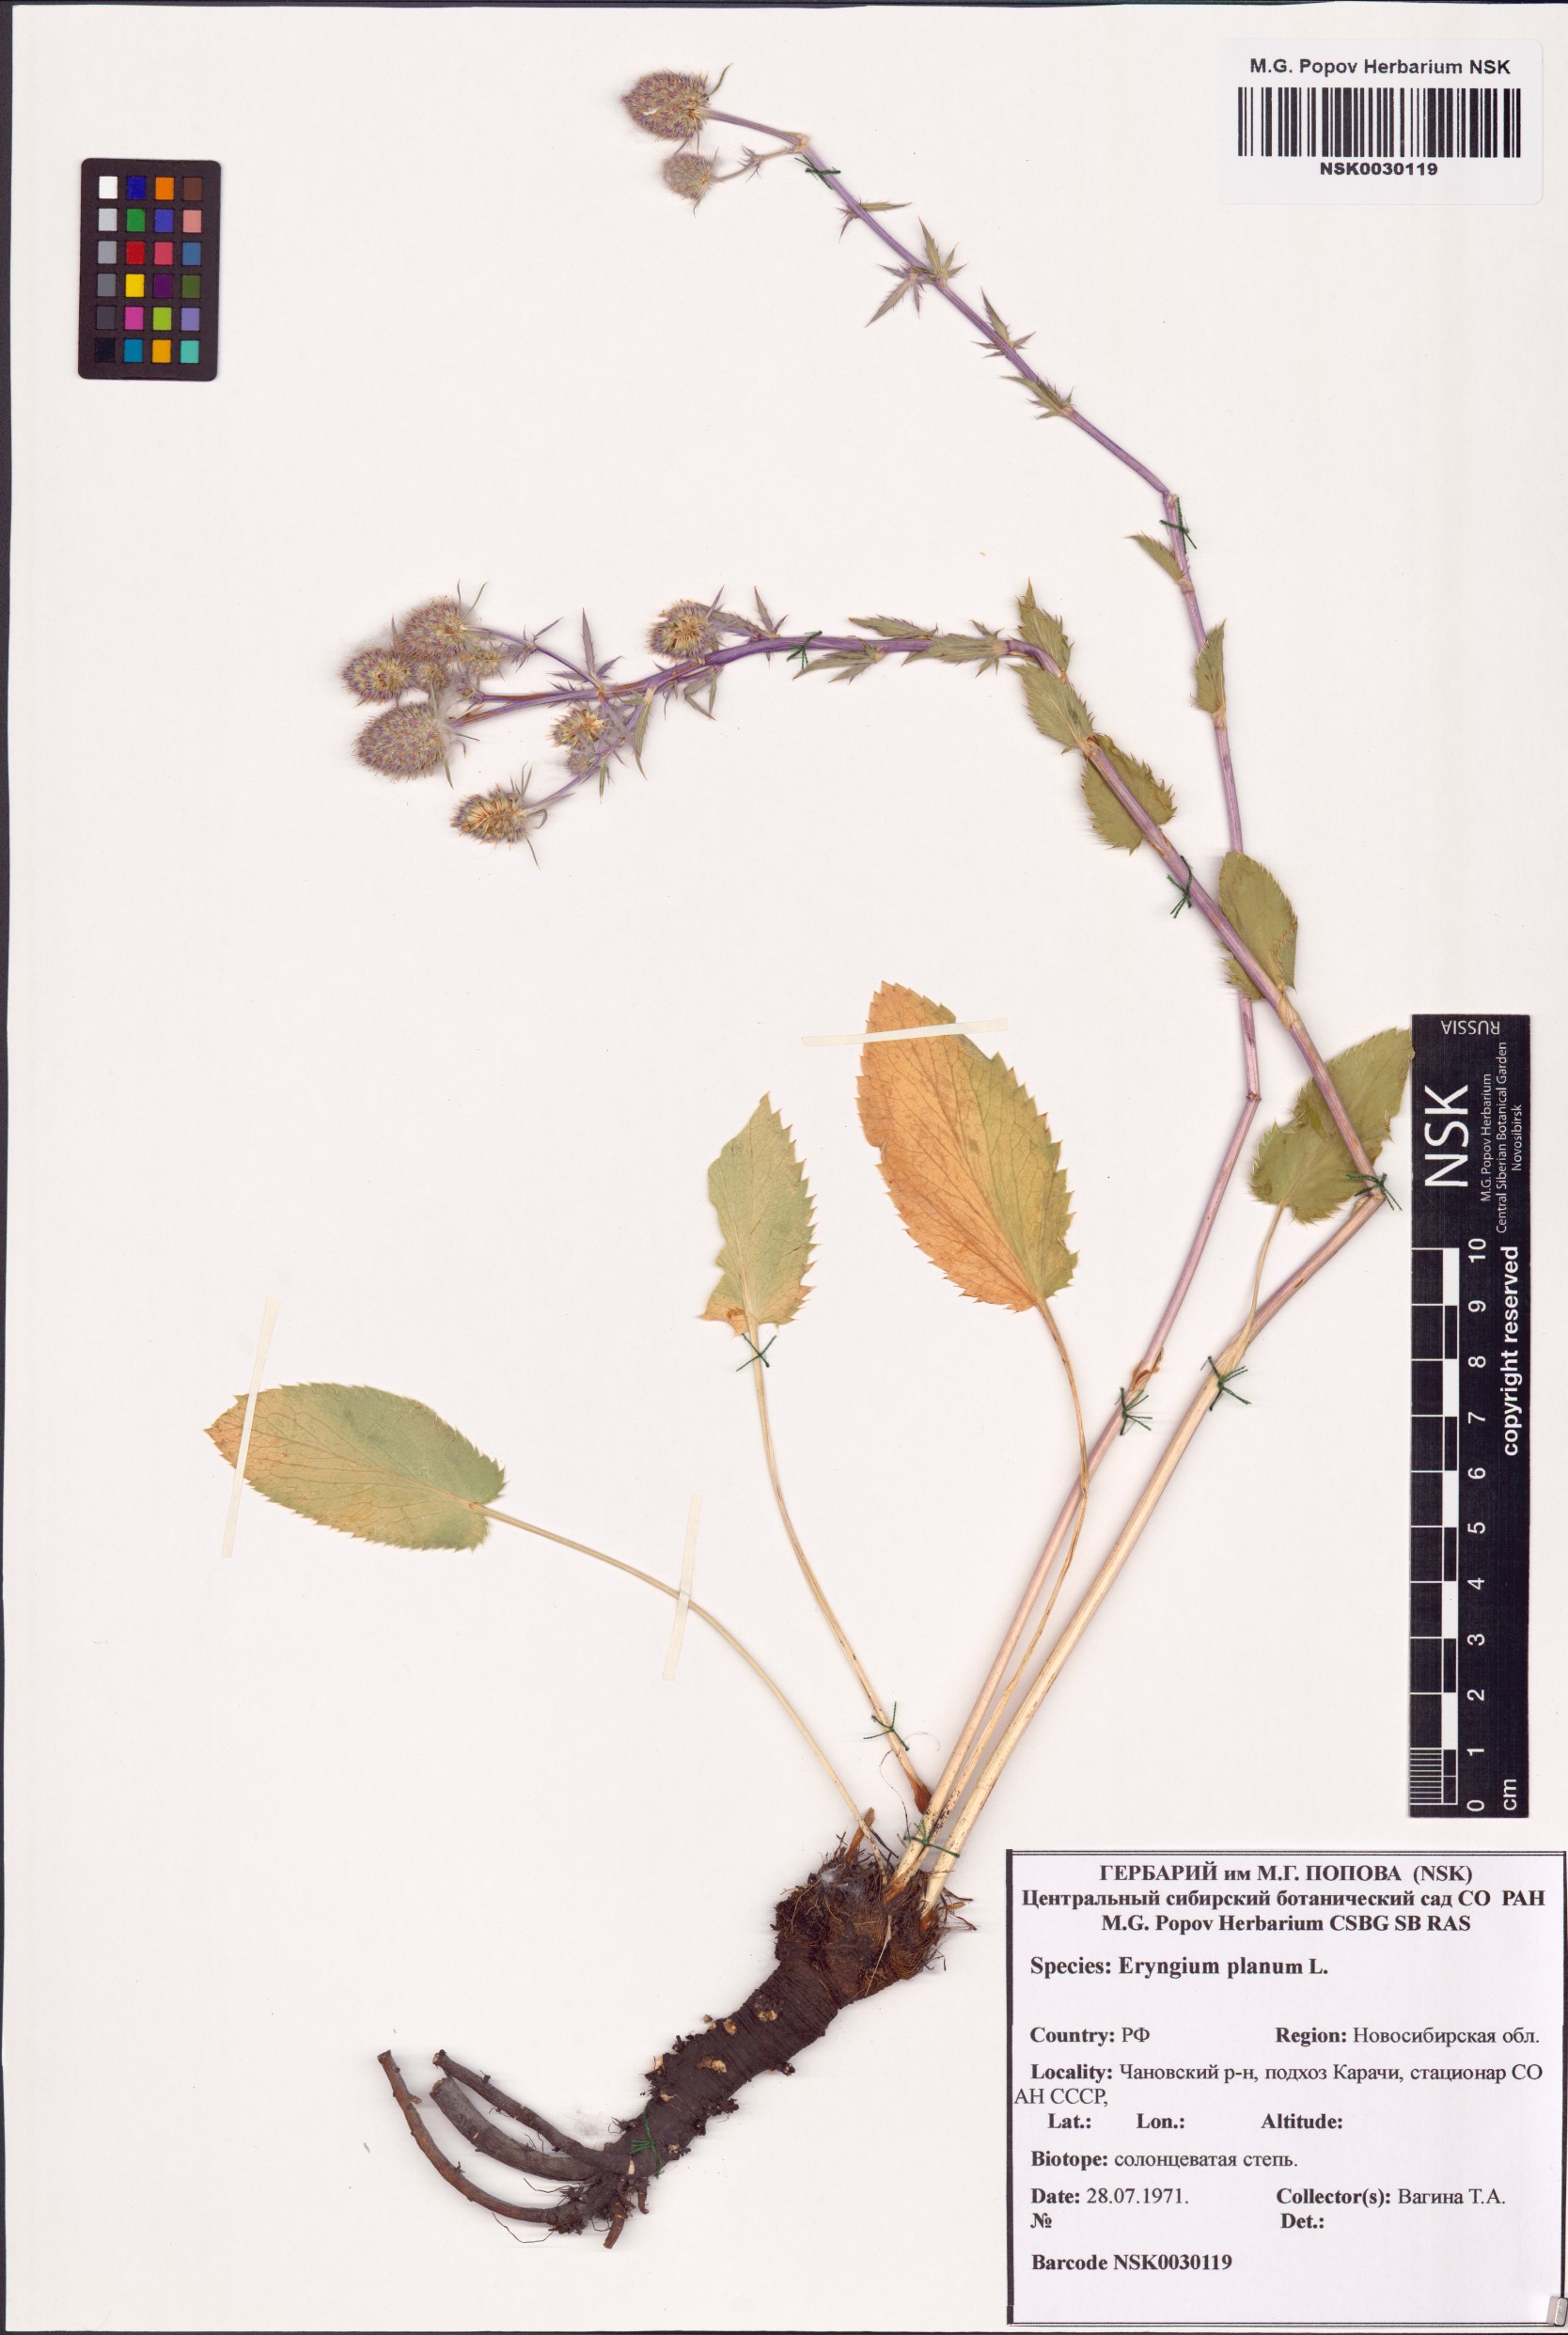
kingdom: Plantae
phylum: Tracheophyta
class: Magnoliopsida
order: Apiales
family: Apiaceae
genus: Eryngium
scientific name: Eryngium planum
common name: Blue eryngo
